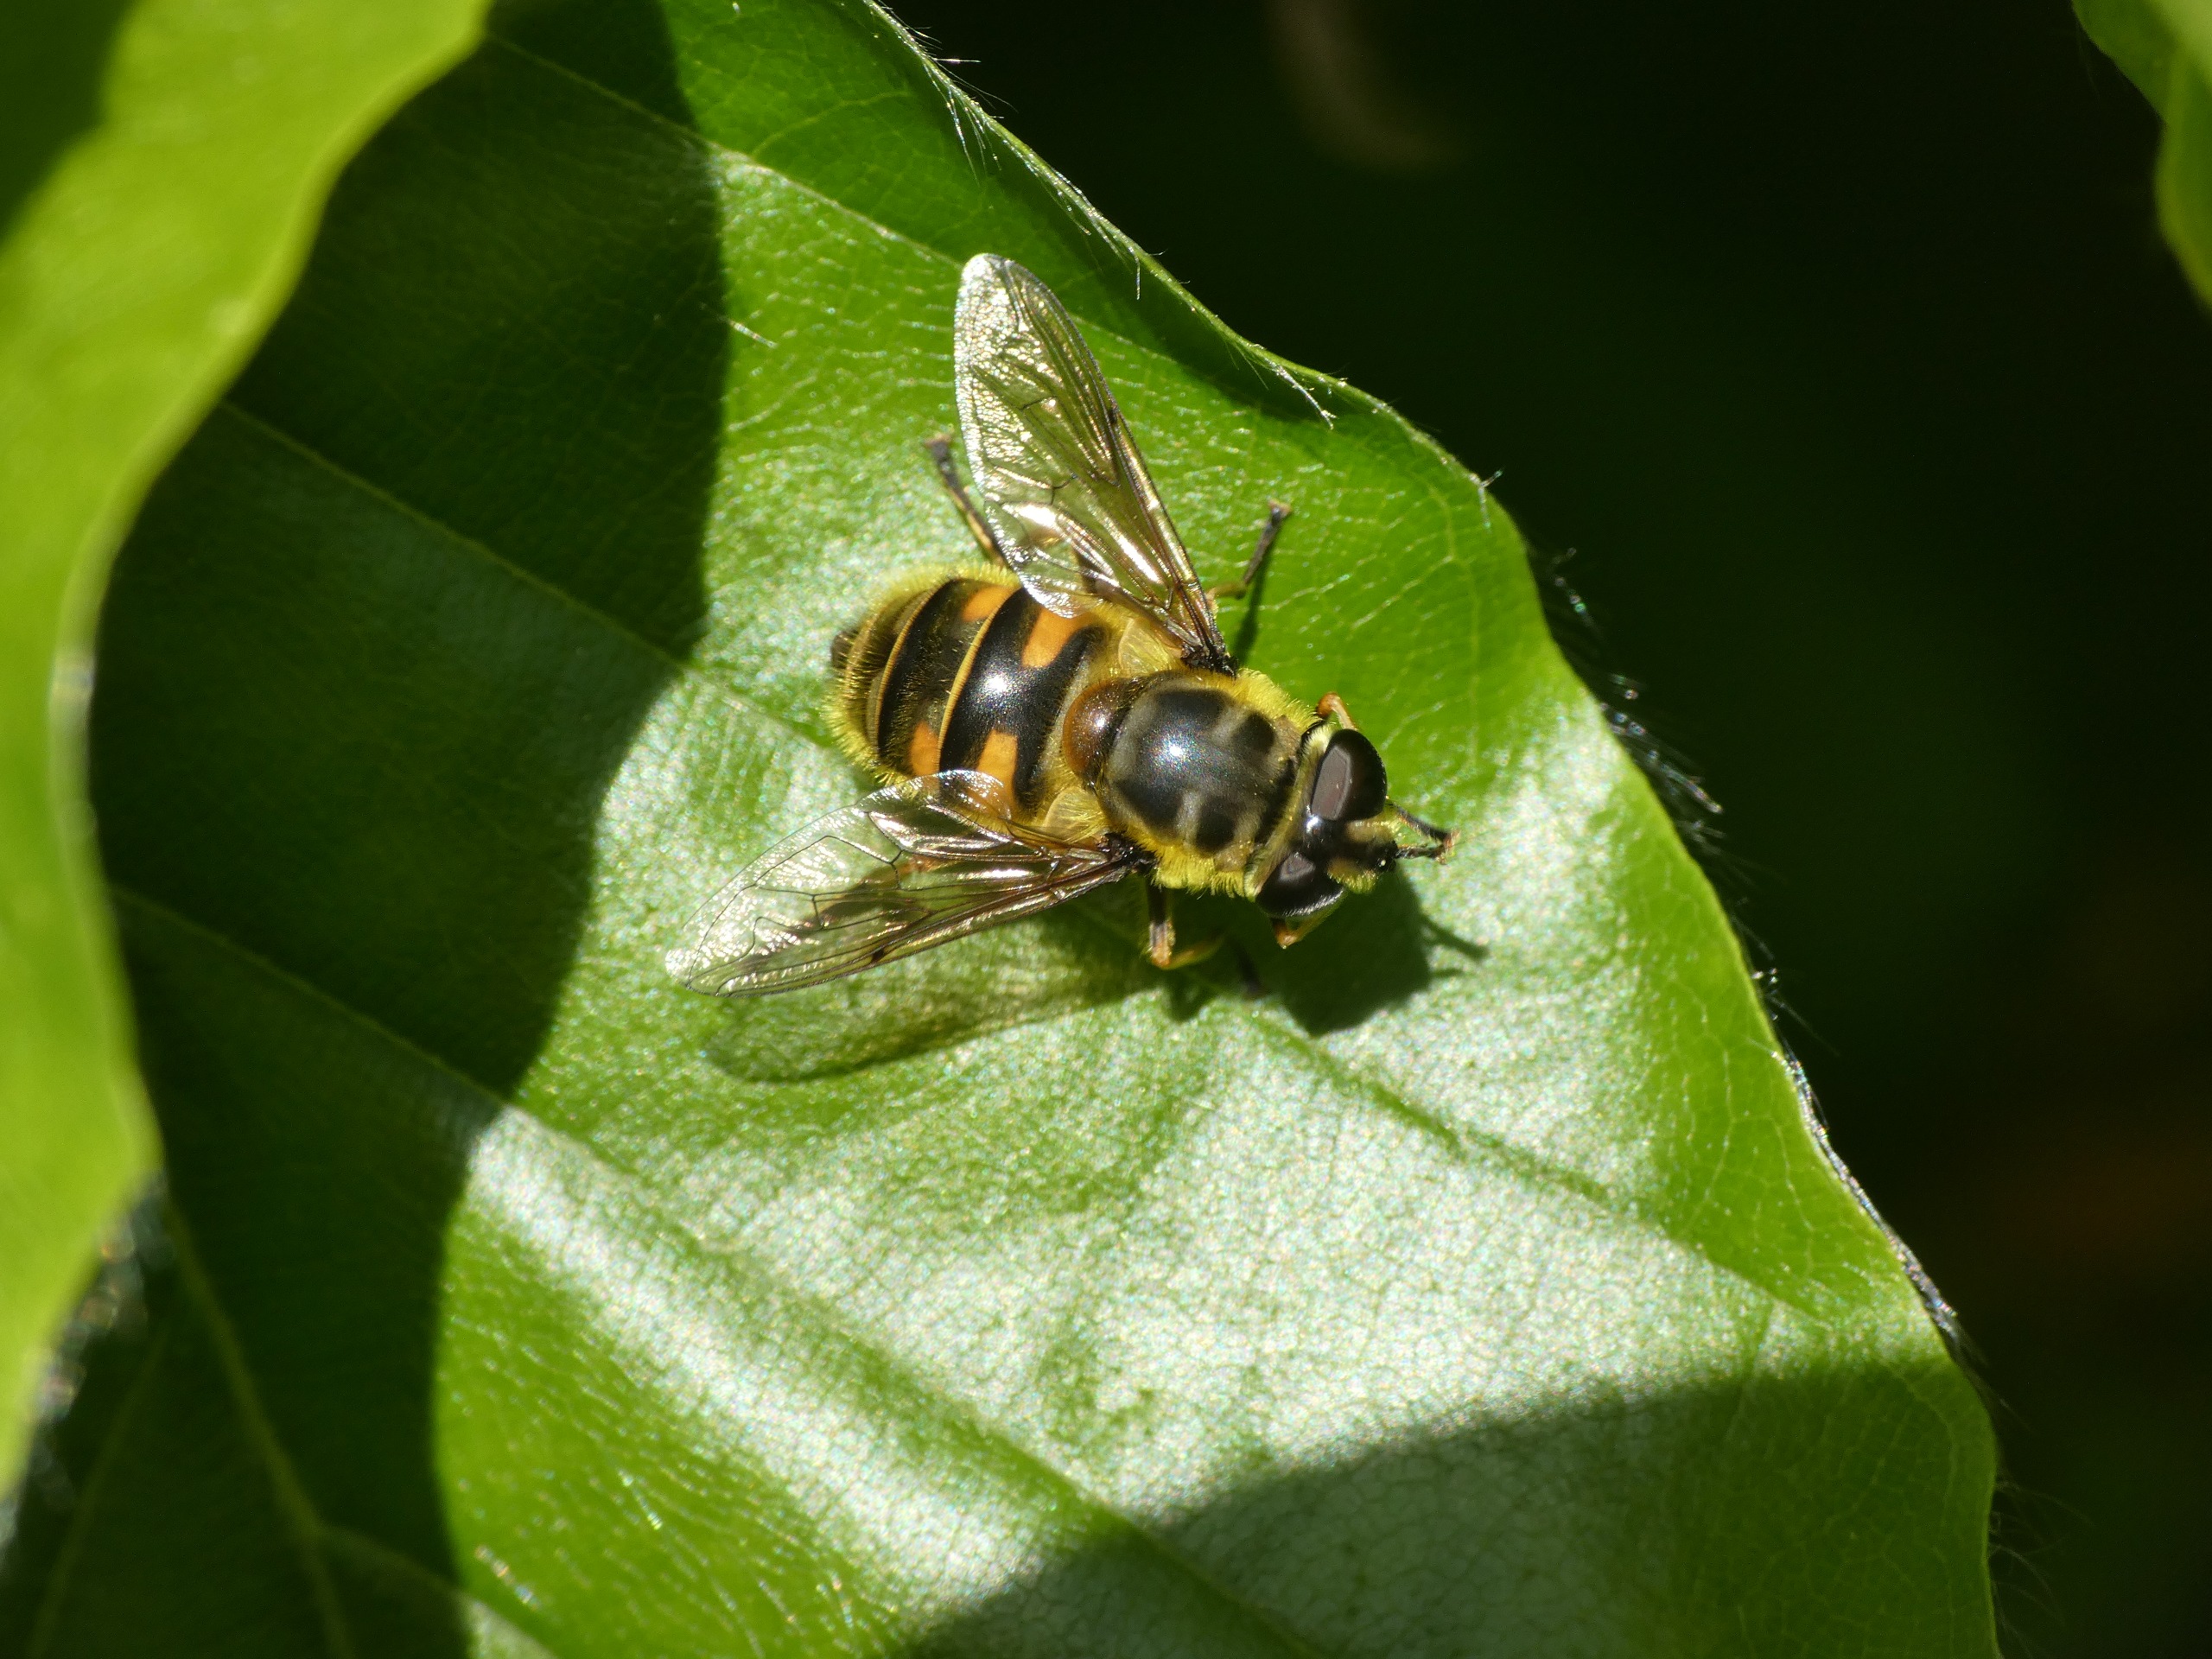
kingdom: Animalia
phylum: Arthropoda
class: Insecta
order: Diptera
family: Syrphidae
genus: Myathropa
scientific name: Myathropa florea
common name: Dødningehoved-svirreflue
